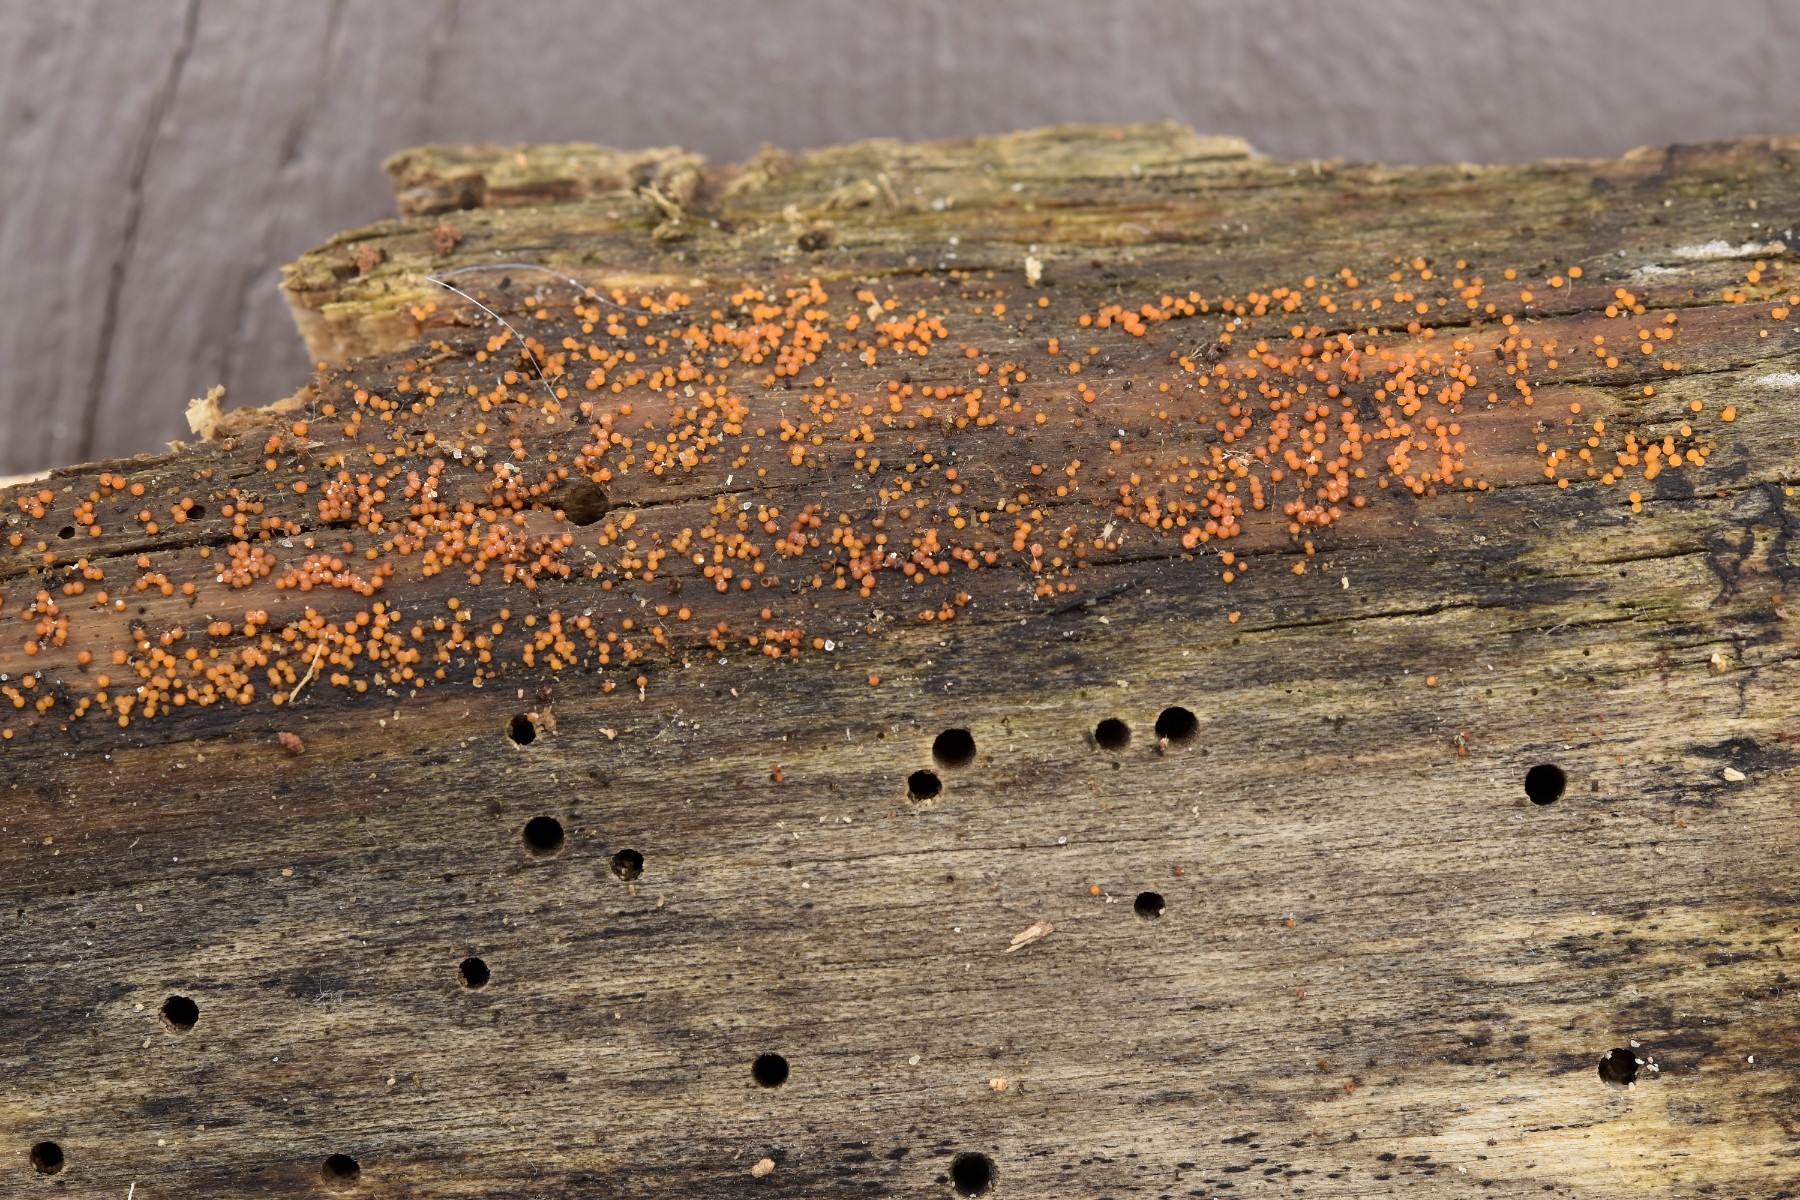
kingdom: Fungi
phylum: Ascomycota
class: Sordariomycetes
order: Hypocreales
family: Nectriaceae
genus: Hydropisphaera
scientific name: Hydropisphaera peziza
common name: skålformet gyldenkerne
